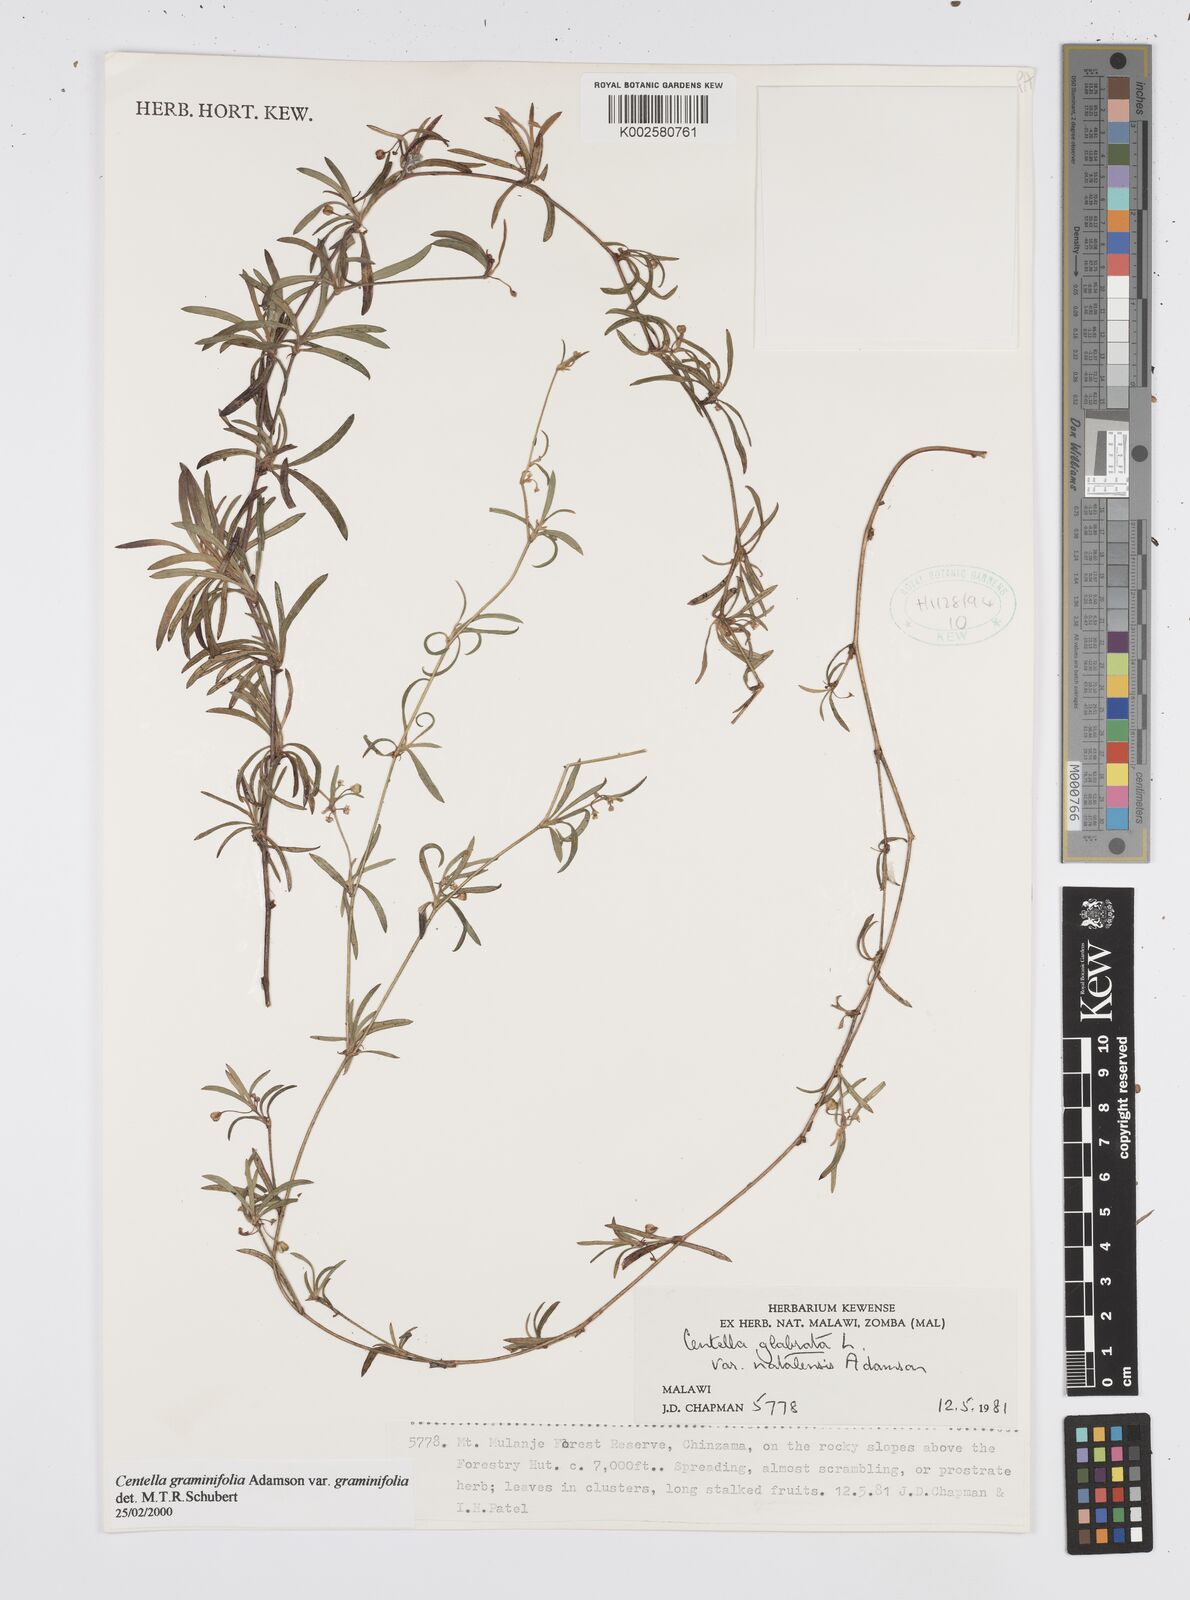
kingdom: Plantae
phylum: Tracheophyta
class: Magnoliopsida
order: Apiales
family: Apiaceae
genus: Centella
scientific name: Centella graminifolia
